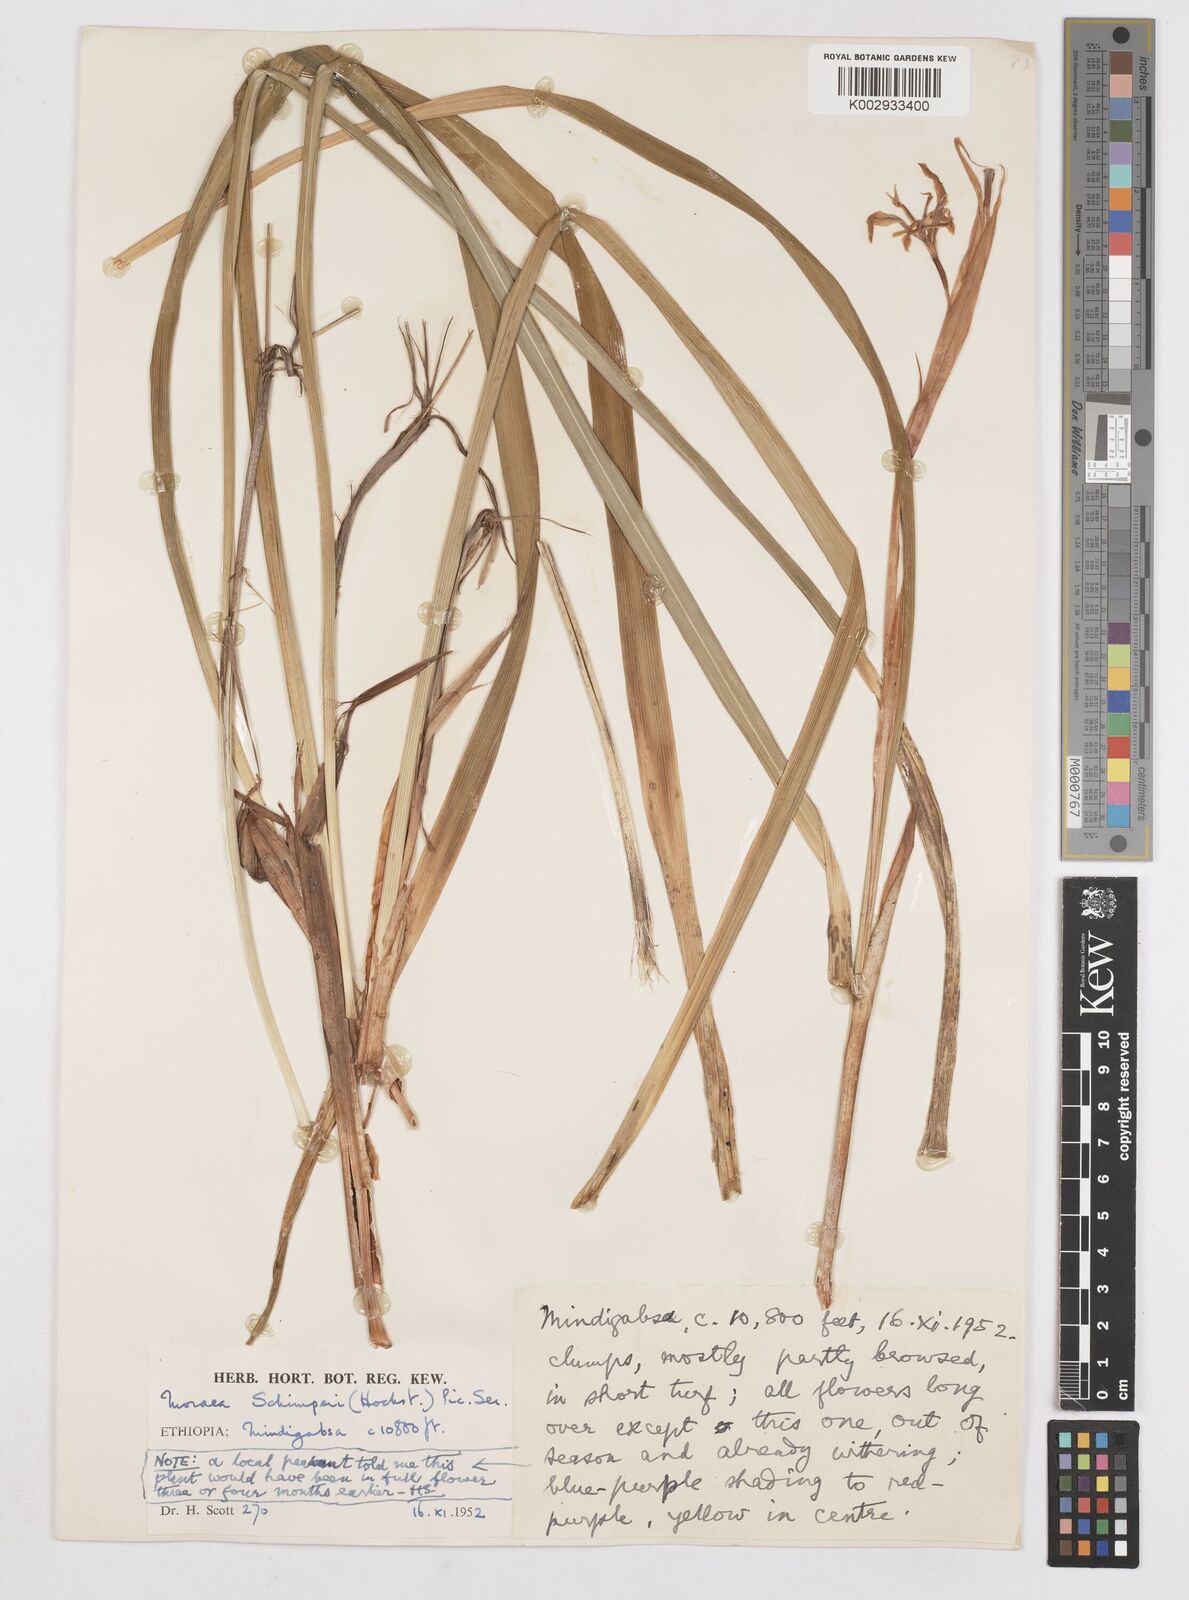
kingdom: Plantae
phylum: Tracheophyta
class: Liliopsida
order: Asparagales
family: Iridaceae
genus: Moraea
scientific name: Moraea schimperi
